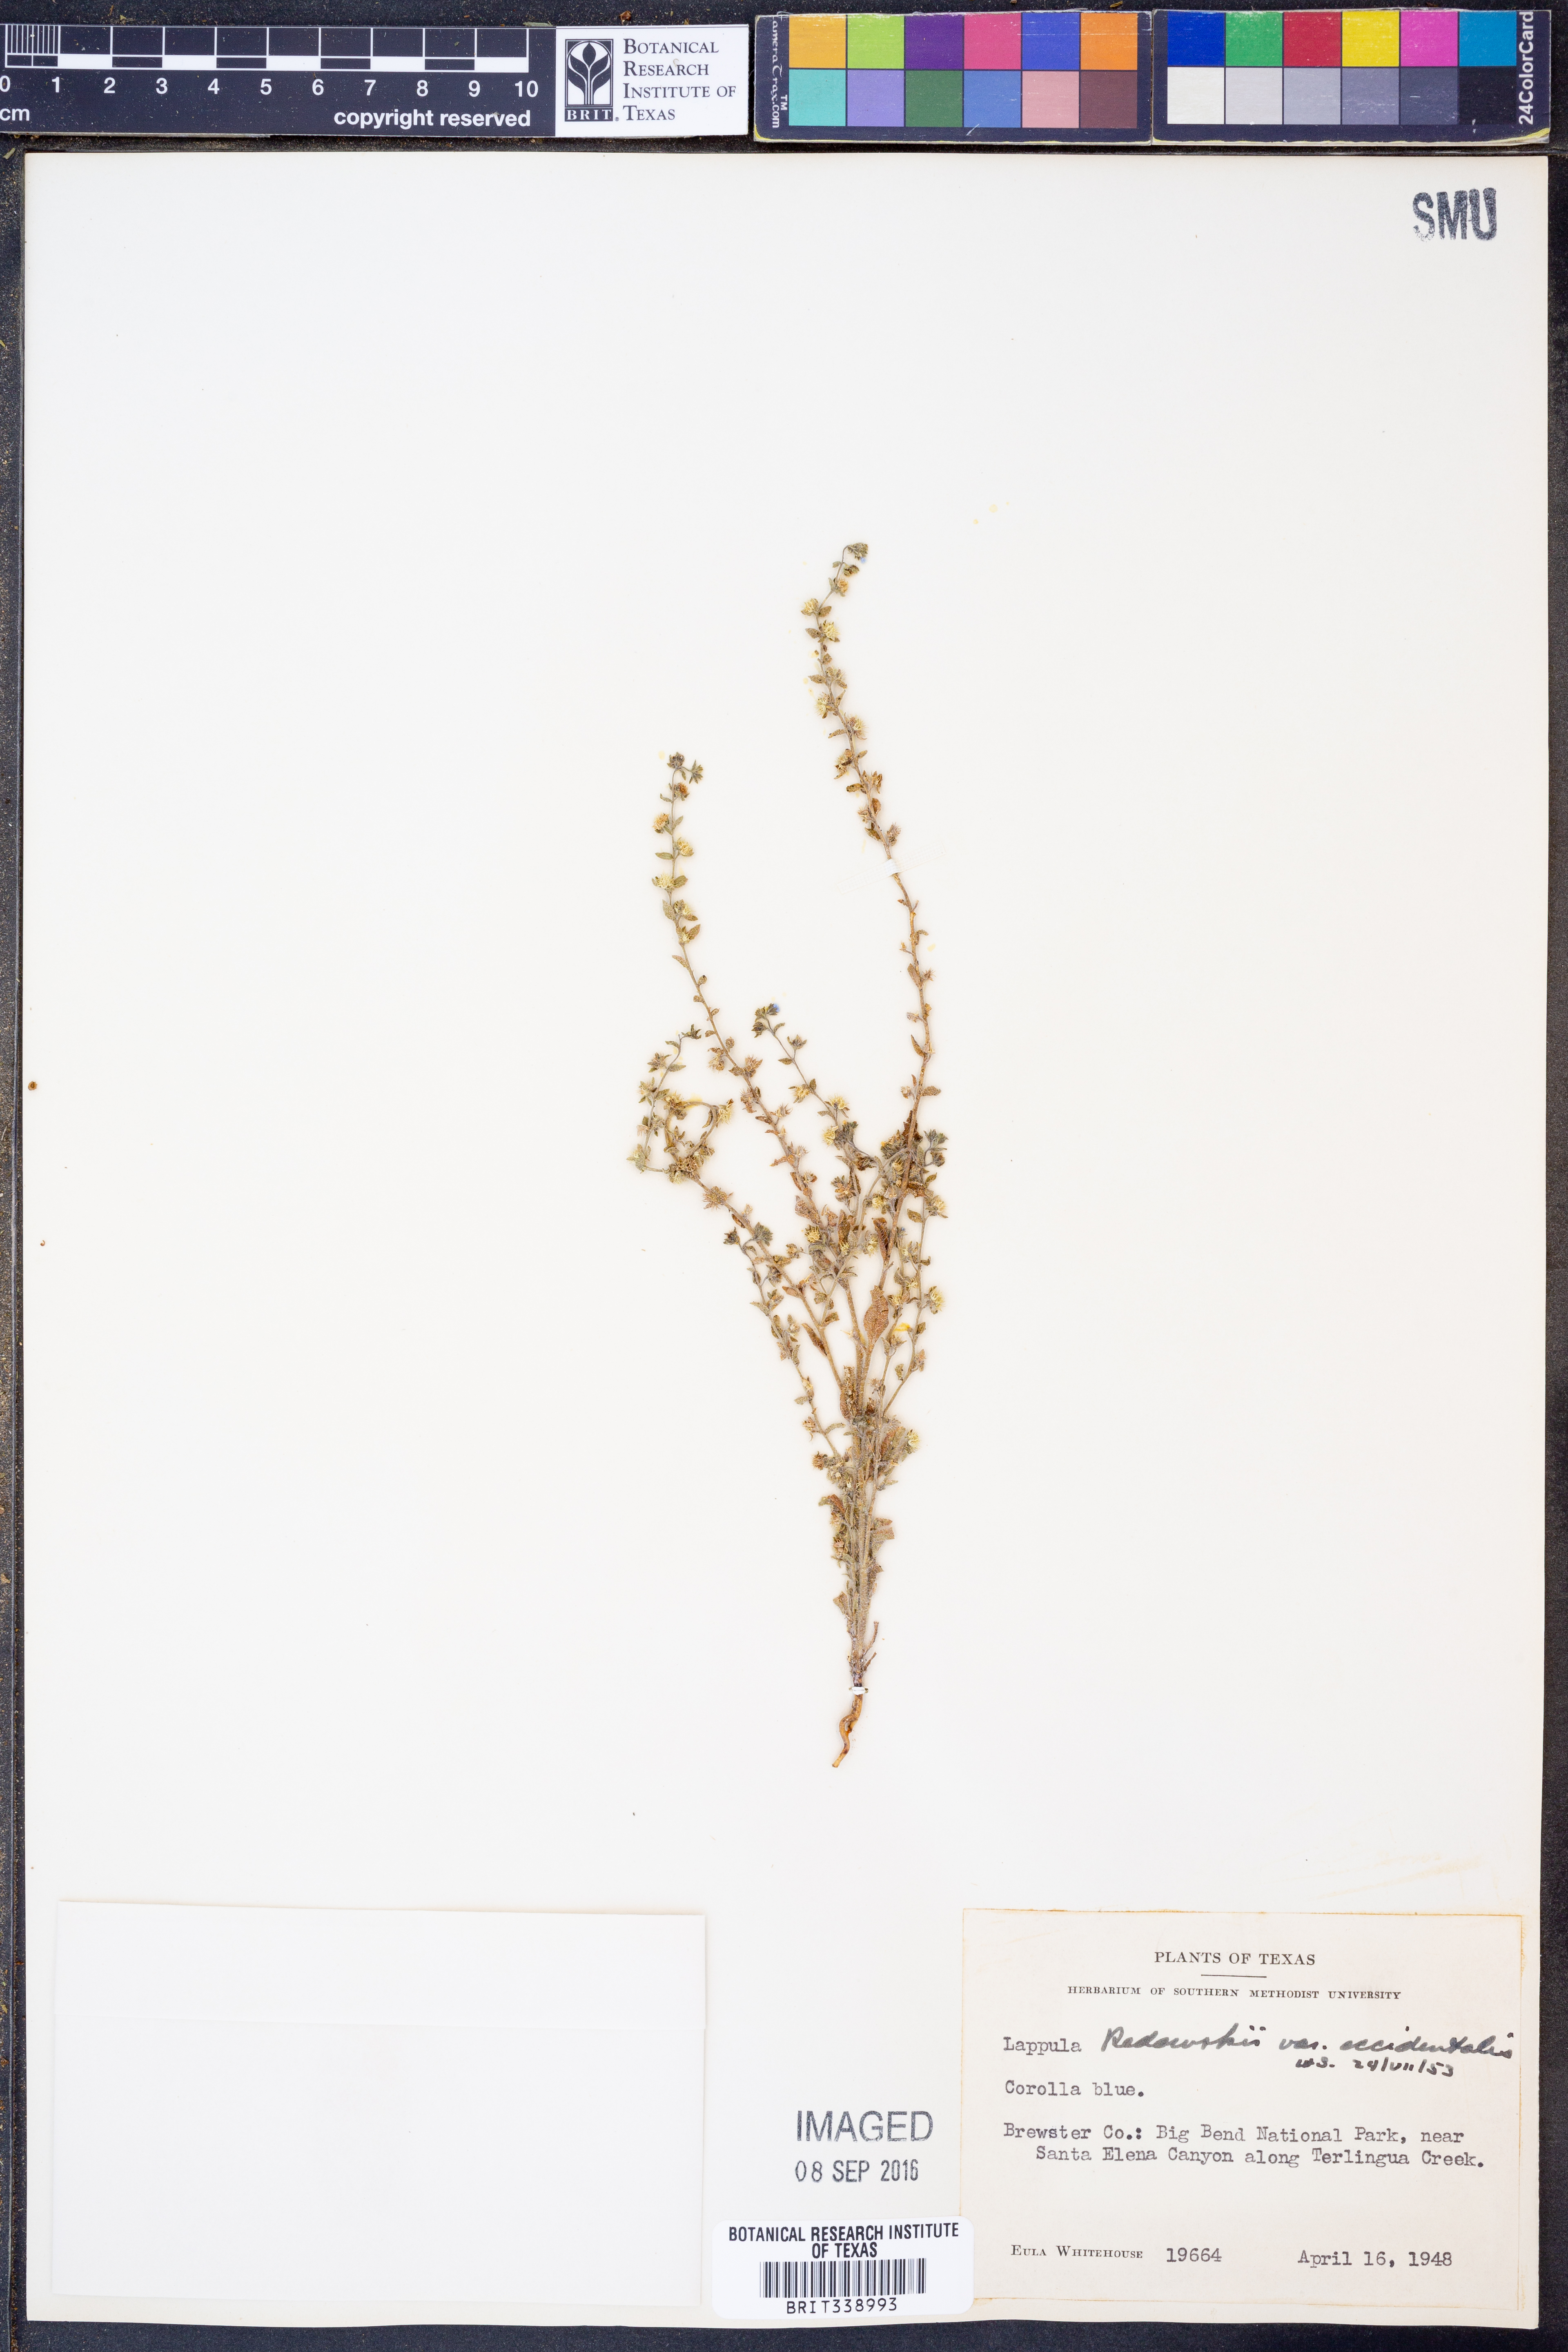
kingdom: Plantae
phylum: Tracheophyta
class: Magnoliopsida
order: Boraginales
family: Boraginaceae
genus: Lappula
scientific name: Lappula occidentalis
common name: Western stickseed
